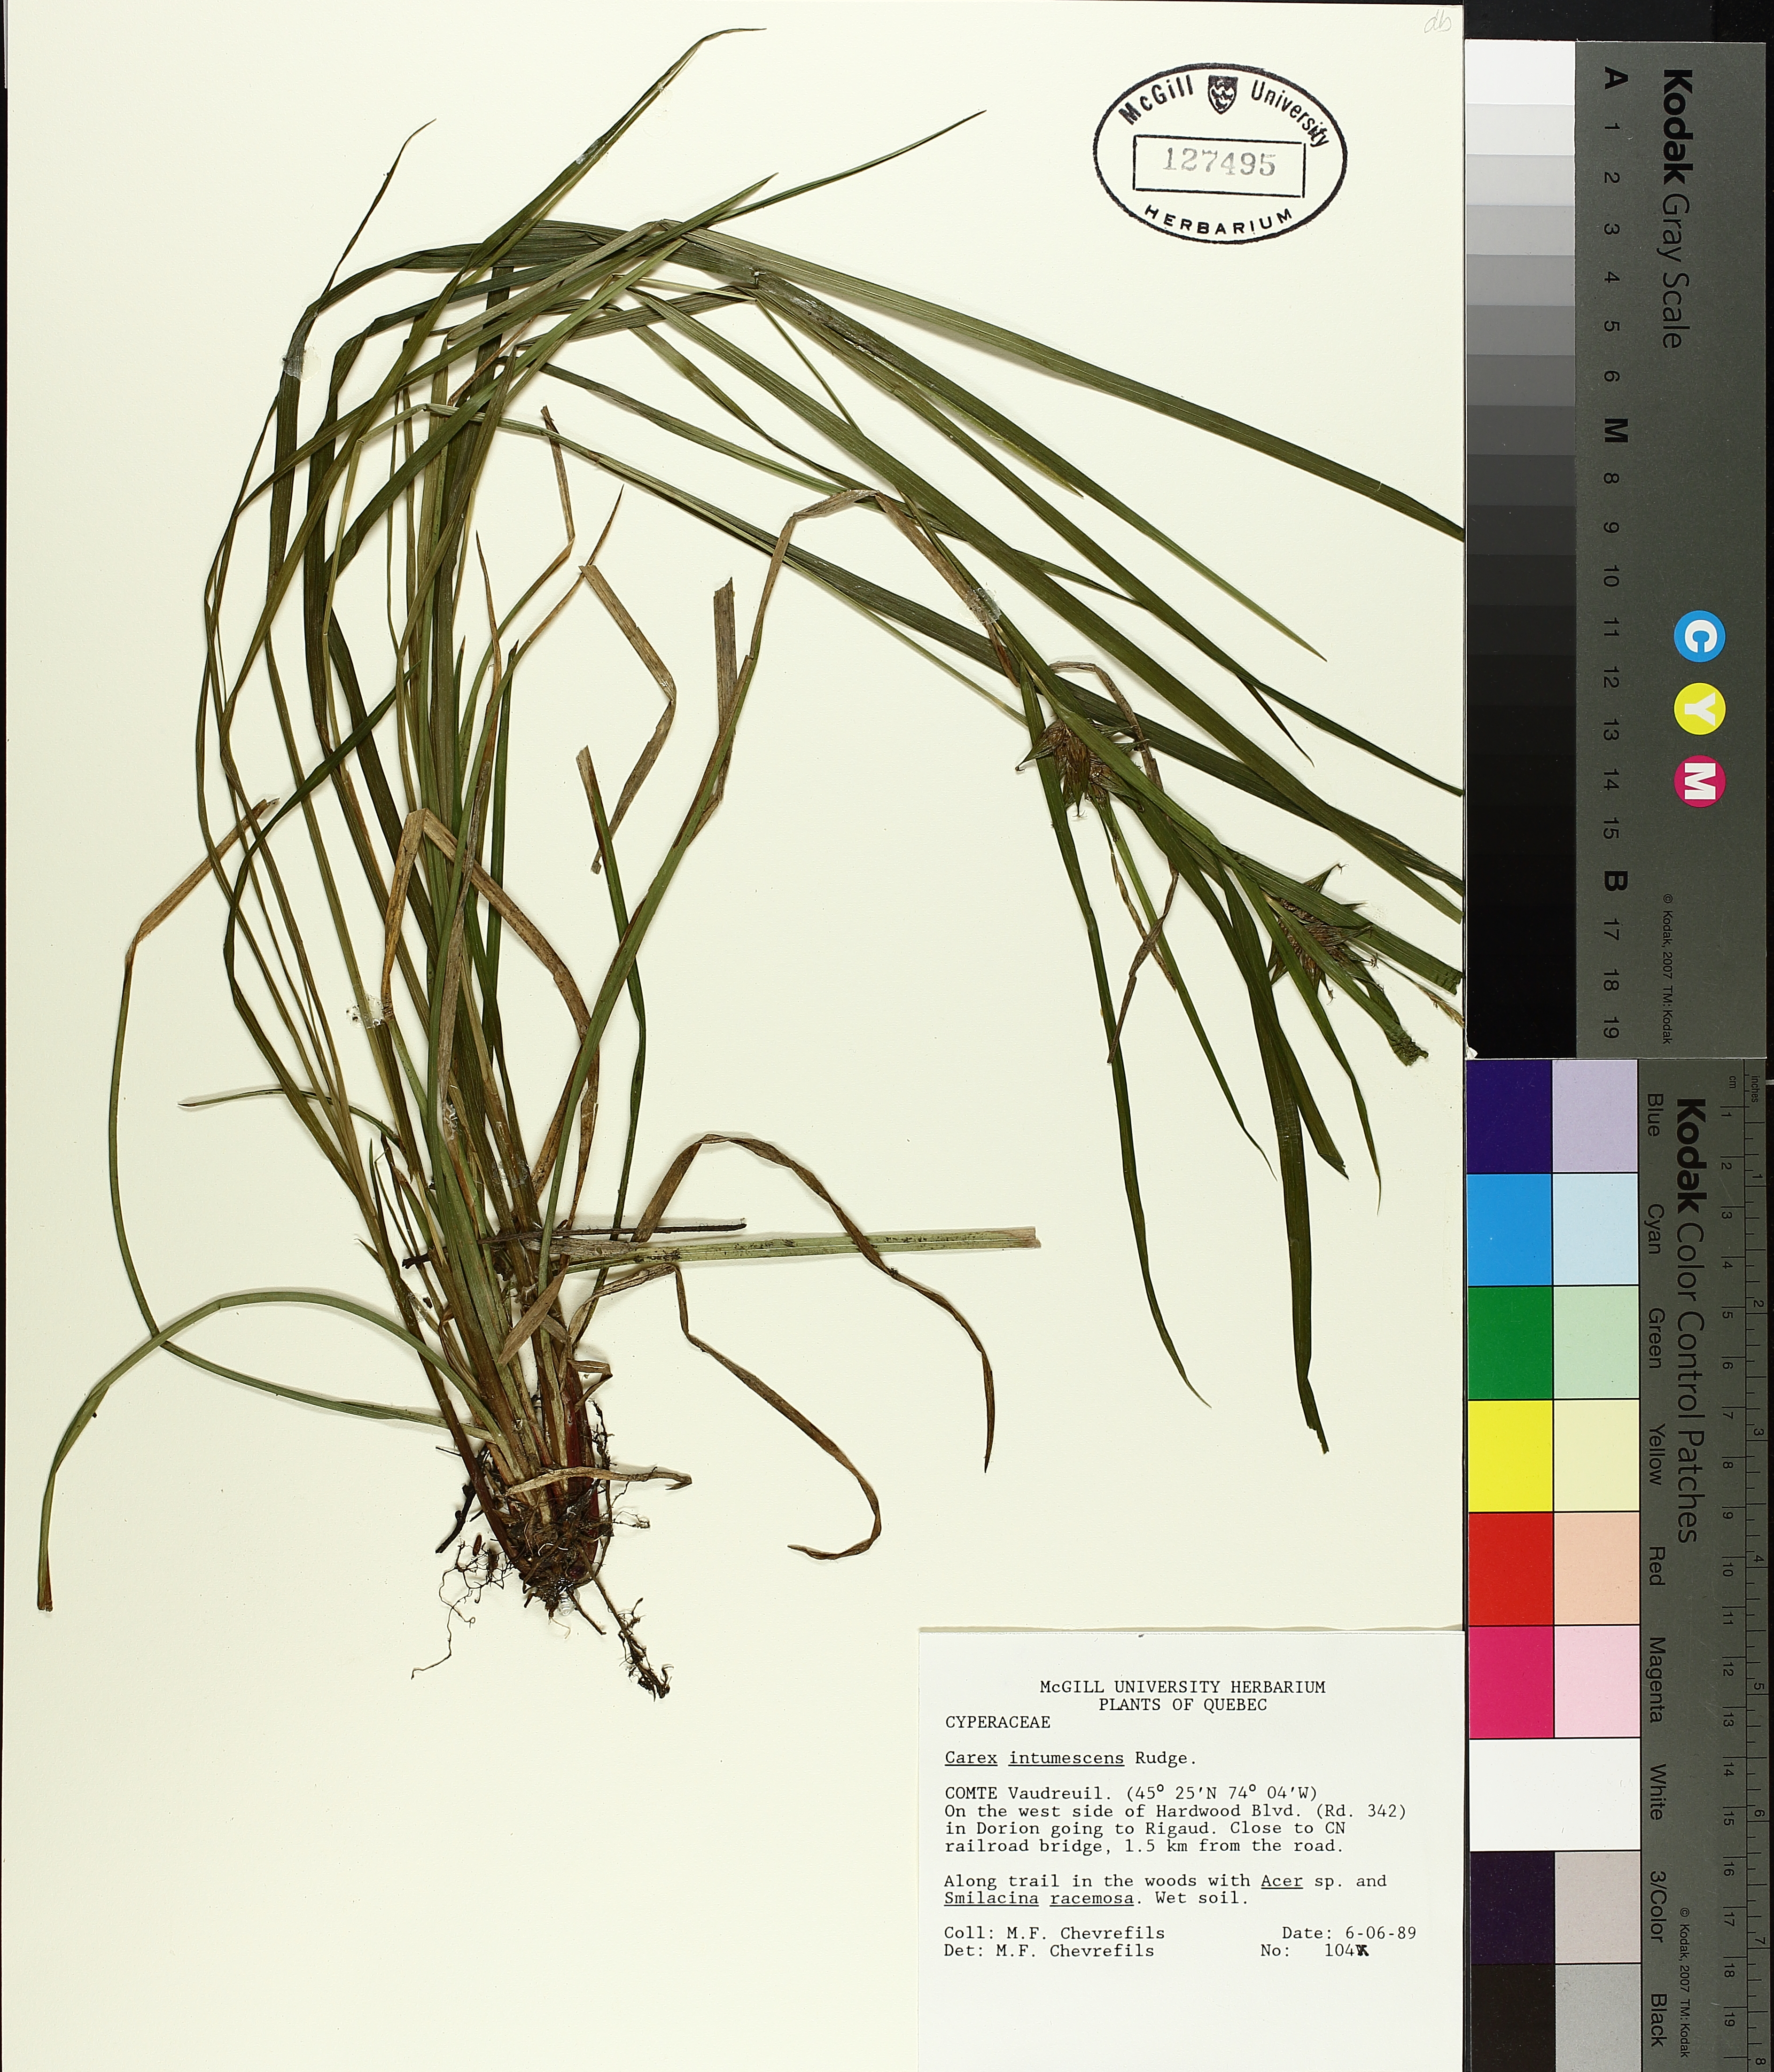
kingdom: Plantae
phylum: Tracheophyta
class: Liliopsida
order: Poales
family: Cyperaceae
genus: Carex
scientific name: Carex intumescens
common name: Greater bladder sedge
